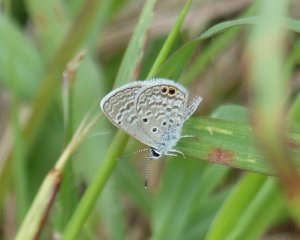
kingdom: Animalia
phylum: Arthropoda
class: Insecta
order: Lepidoptera
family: Lycaenidae
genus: Hemiargus
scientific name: Hemiargus ceraunus
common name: Ceraunus Blue
